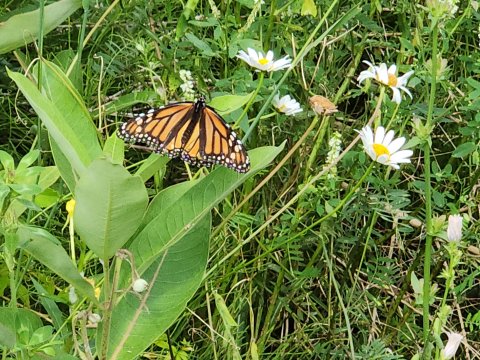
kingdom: Animalia
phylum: Arthropoda
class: Insecta
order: Lepidoptera
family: Nymphalidae
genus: Danaus
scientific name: Danaus plexippus
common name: Monarch
